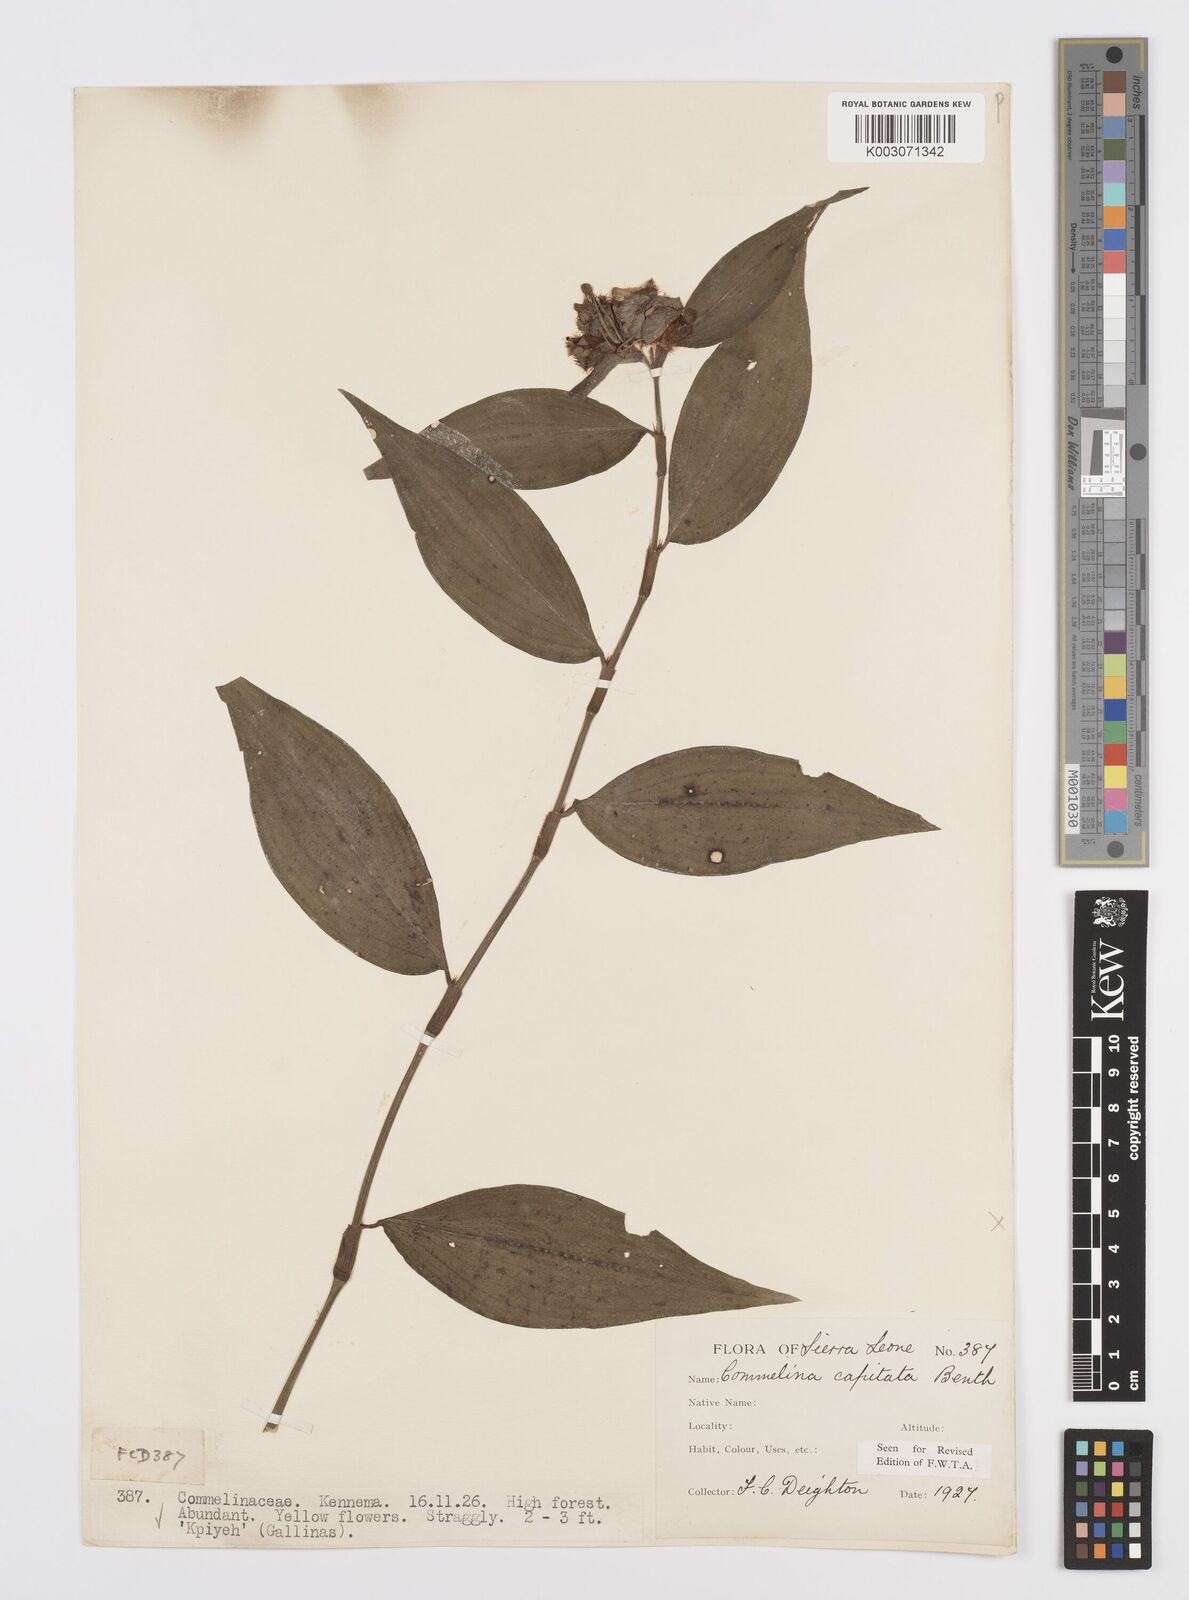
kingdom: Plantae
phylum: Tracheophyta
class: Liliopsida
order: Commelinales
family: Commelinaceae
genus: Commelina
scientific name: Commelina capitata
